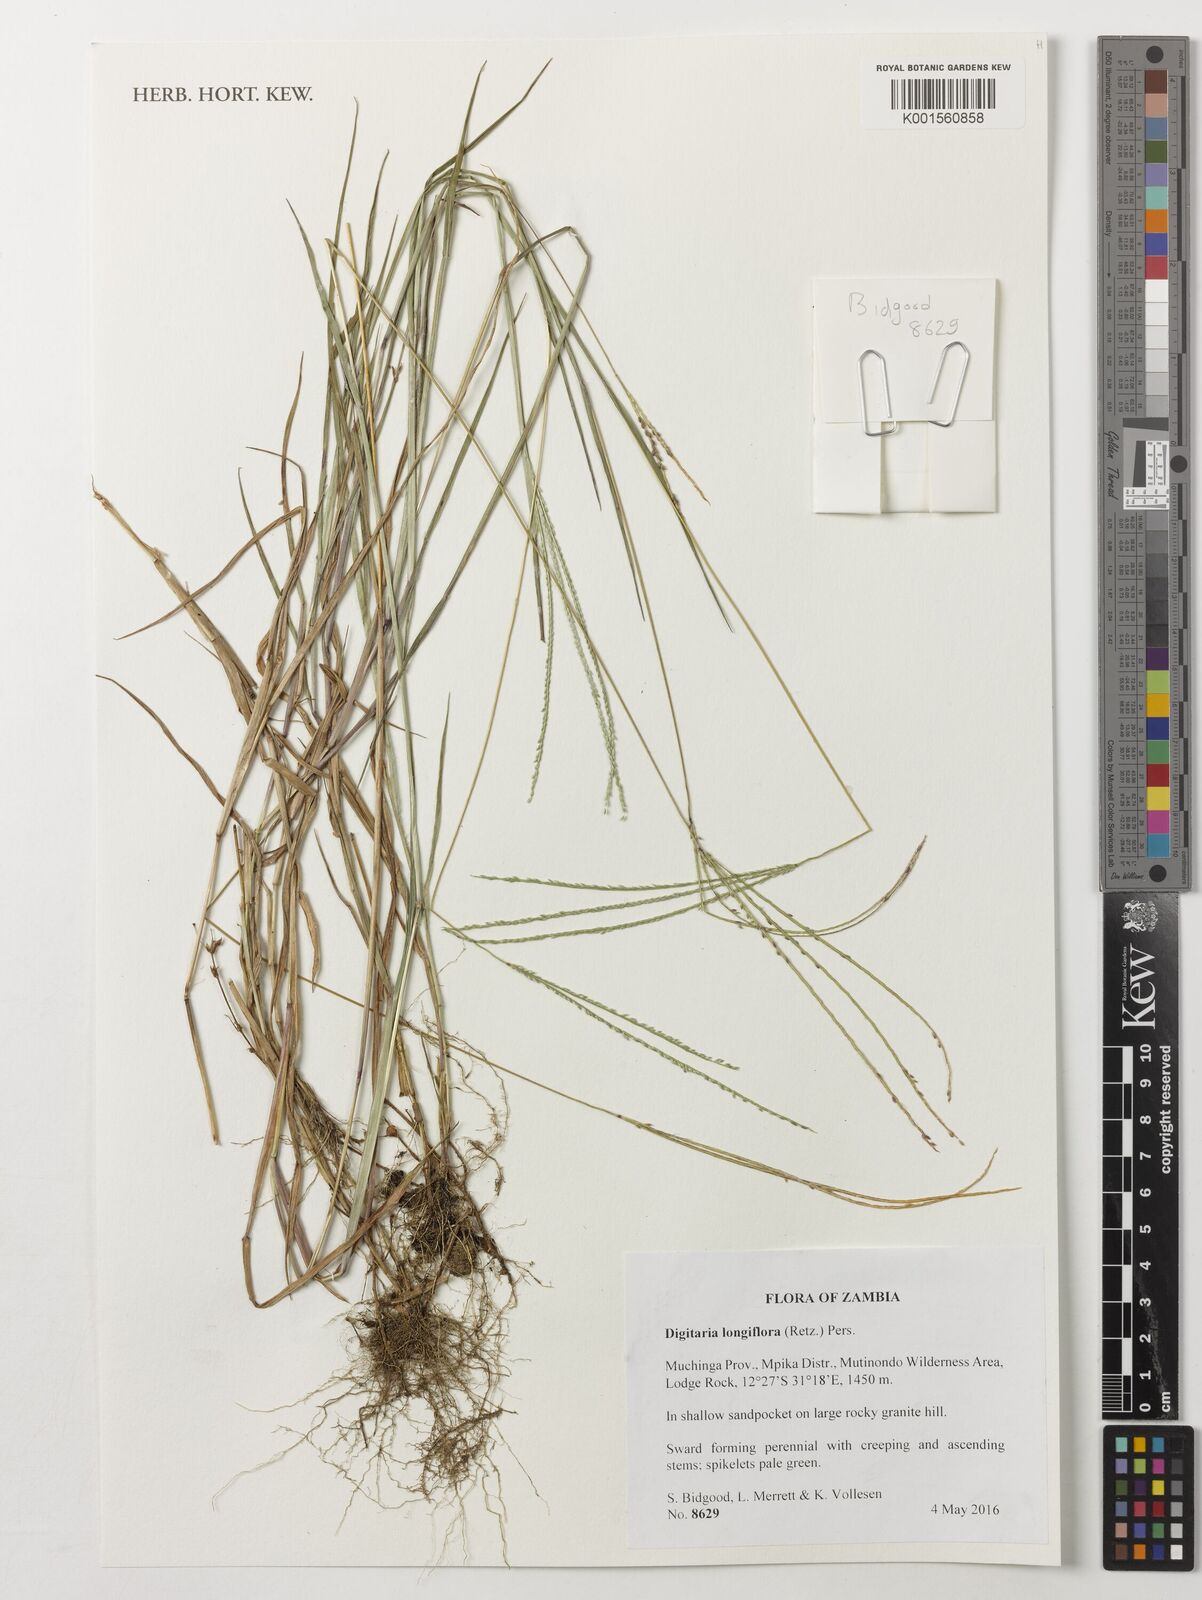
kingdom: Plantae
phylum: Tracheophyta
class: Liliopsida
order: Poales
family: Poaceae
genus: Digitaria
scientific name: Digitaria longiflora
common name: Wire crabgrass
